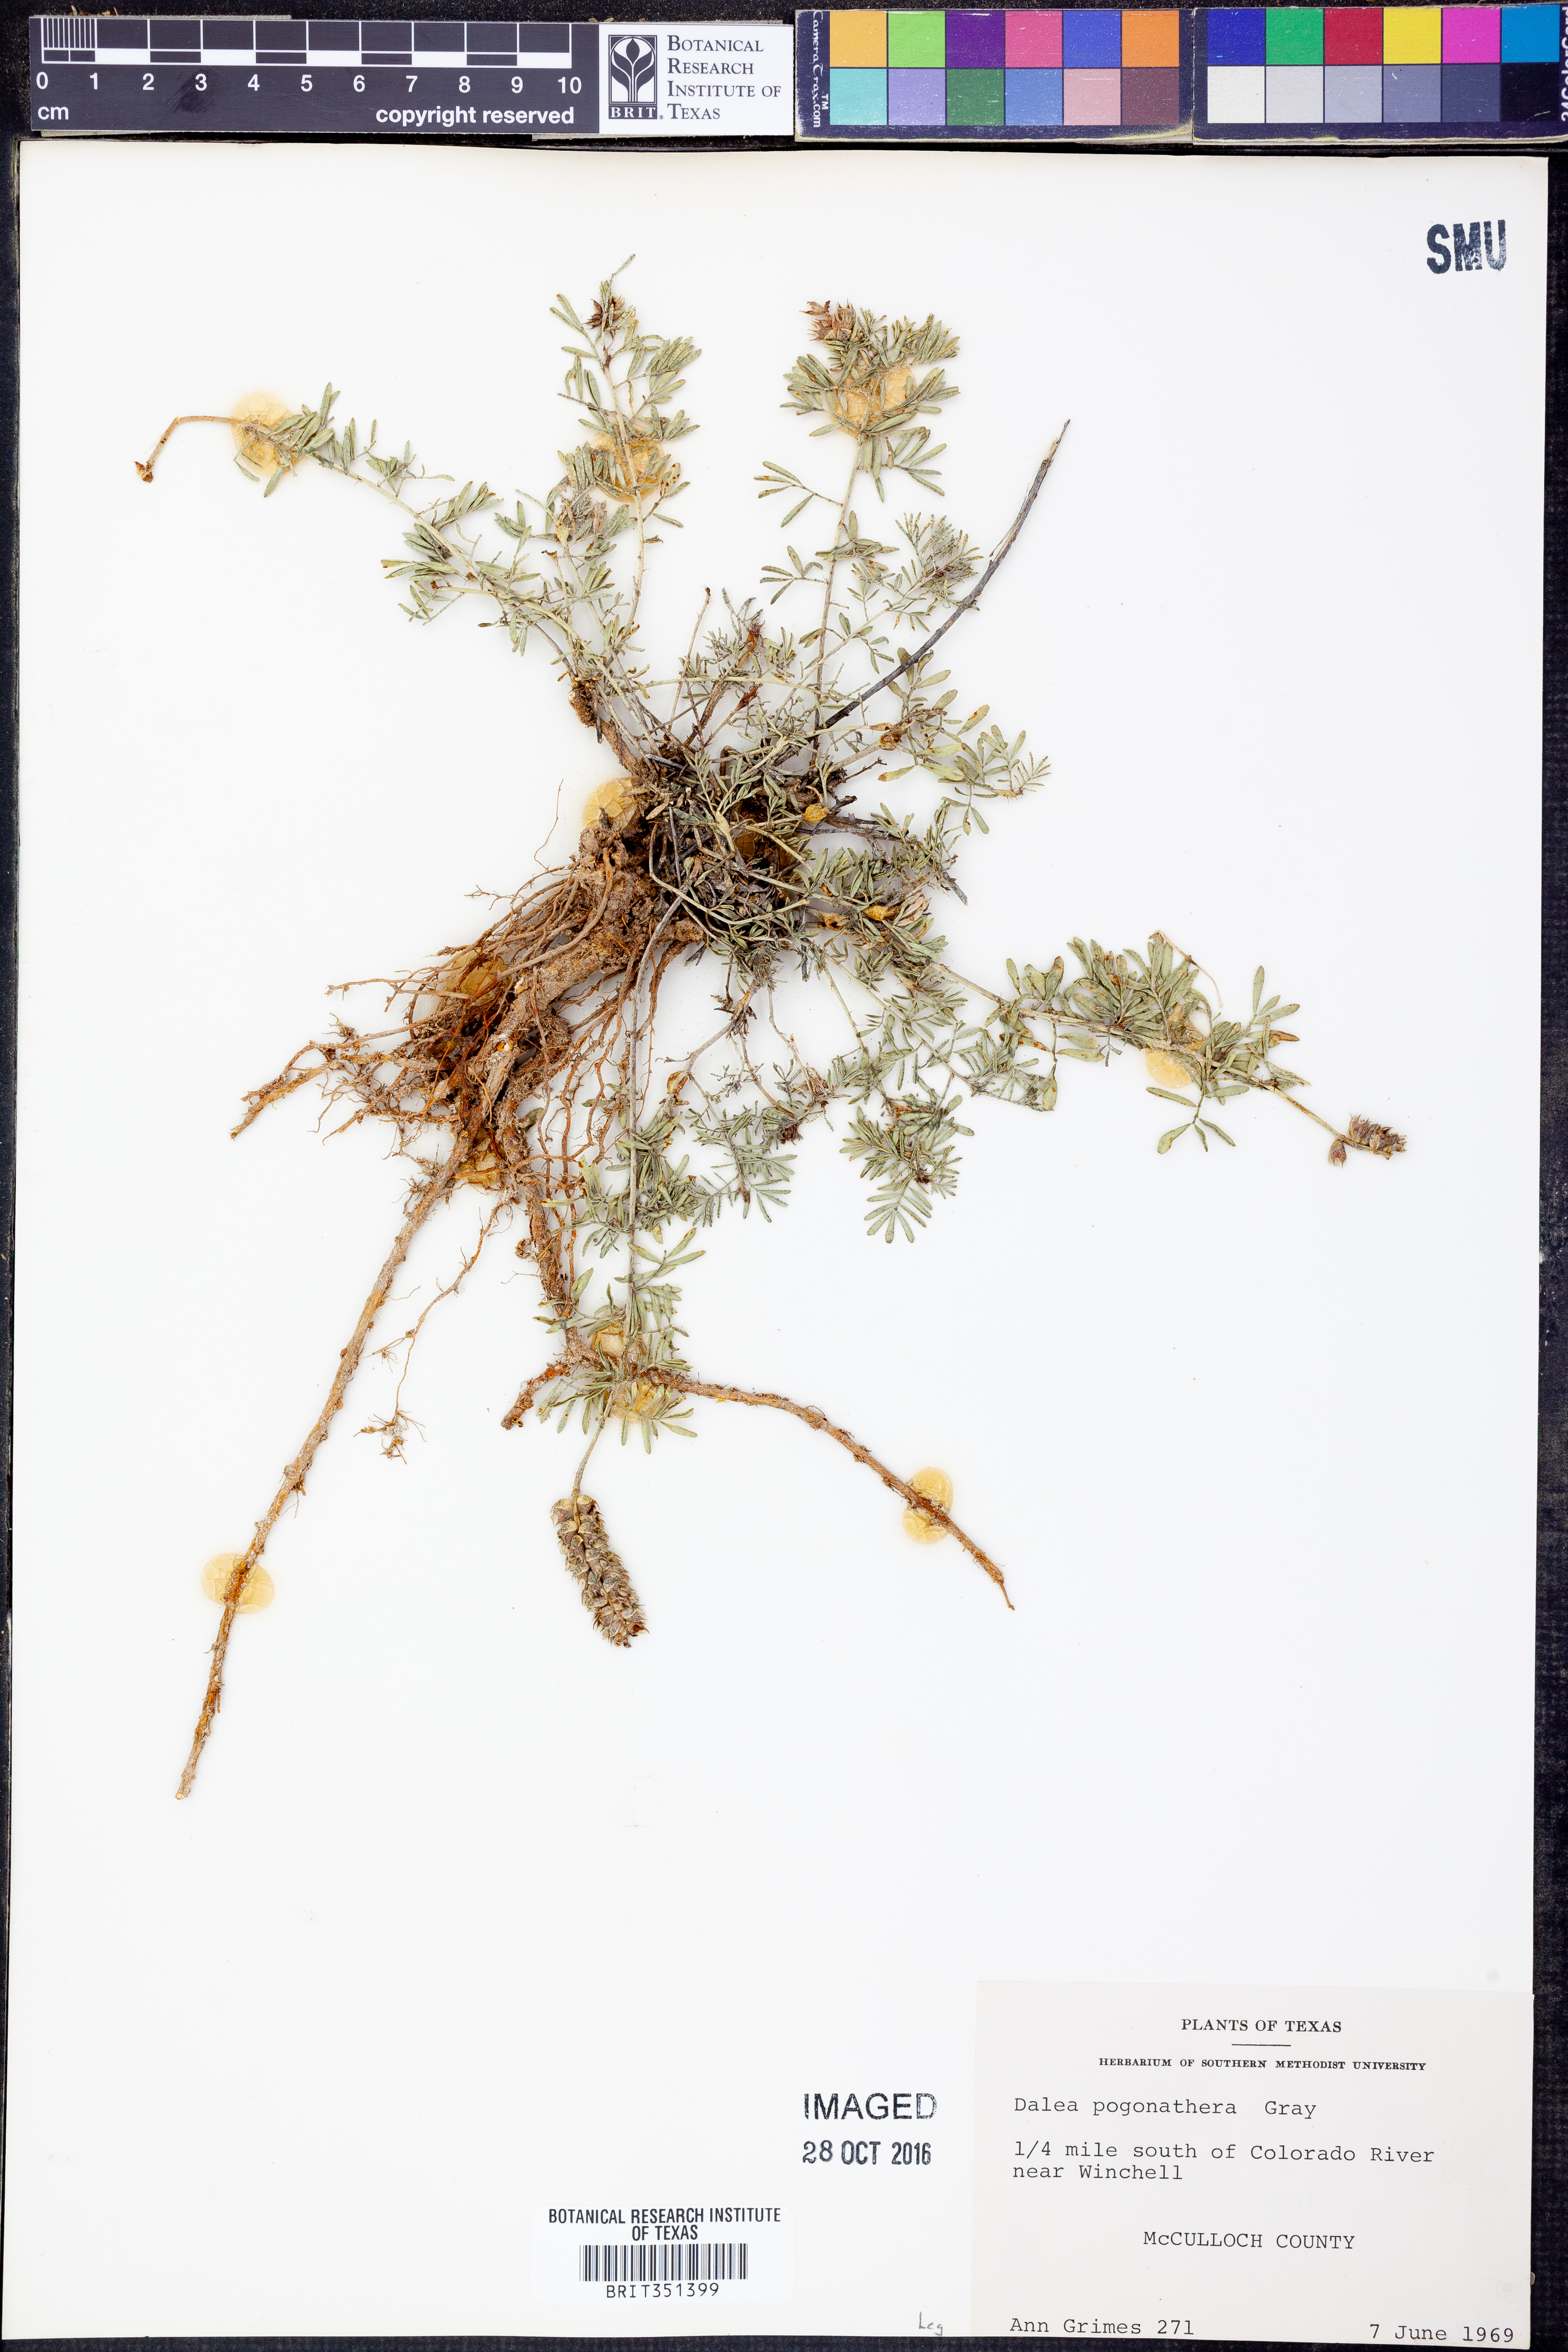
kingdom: Plantae
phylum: Tracheophyta
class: Magnoliopsida
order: Fabales
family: Fabaceae
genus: Dalea
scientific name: Dalea pogonathera
